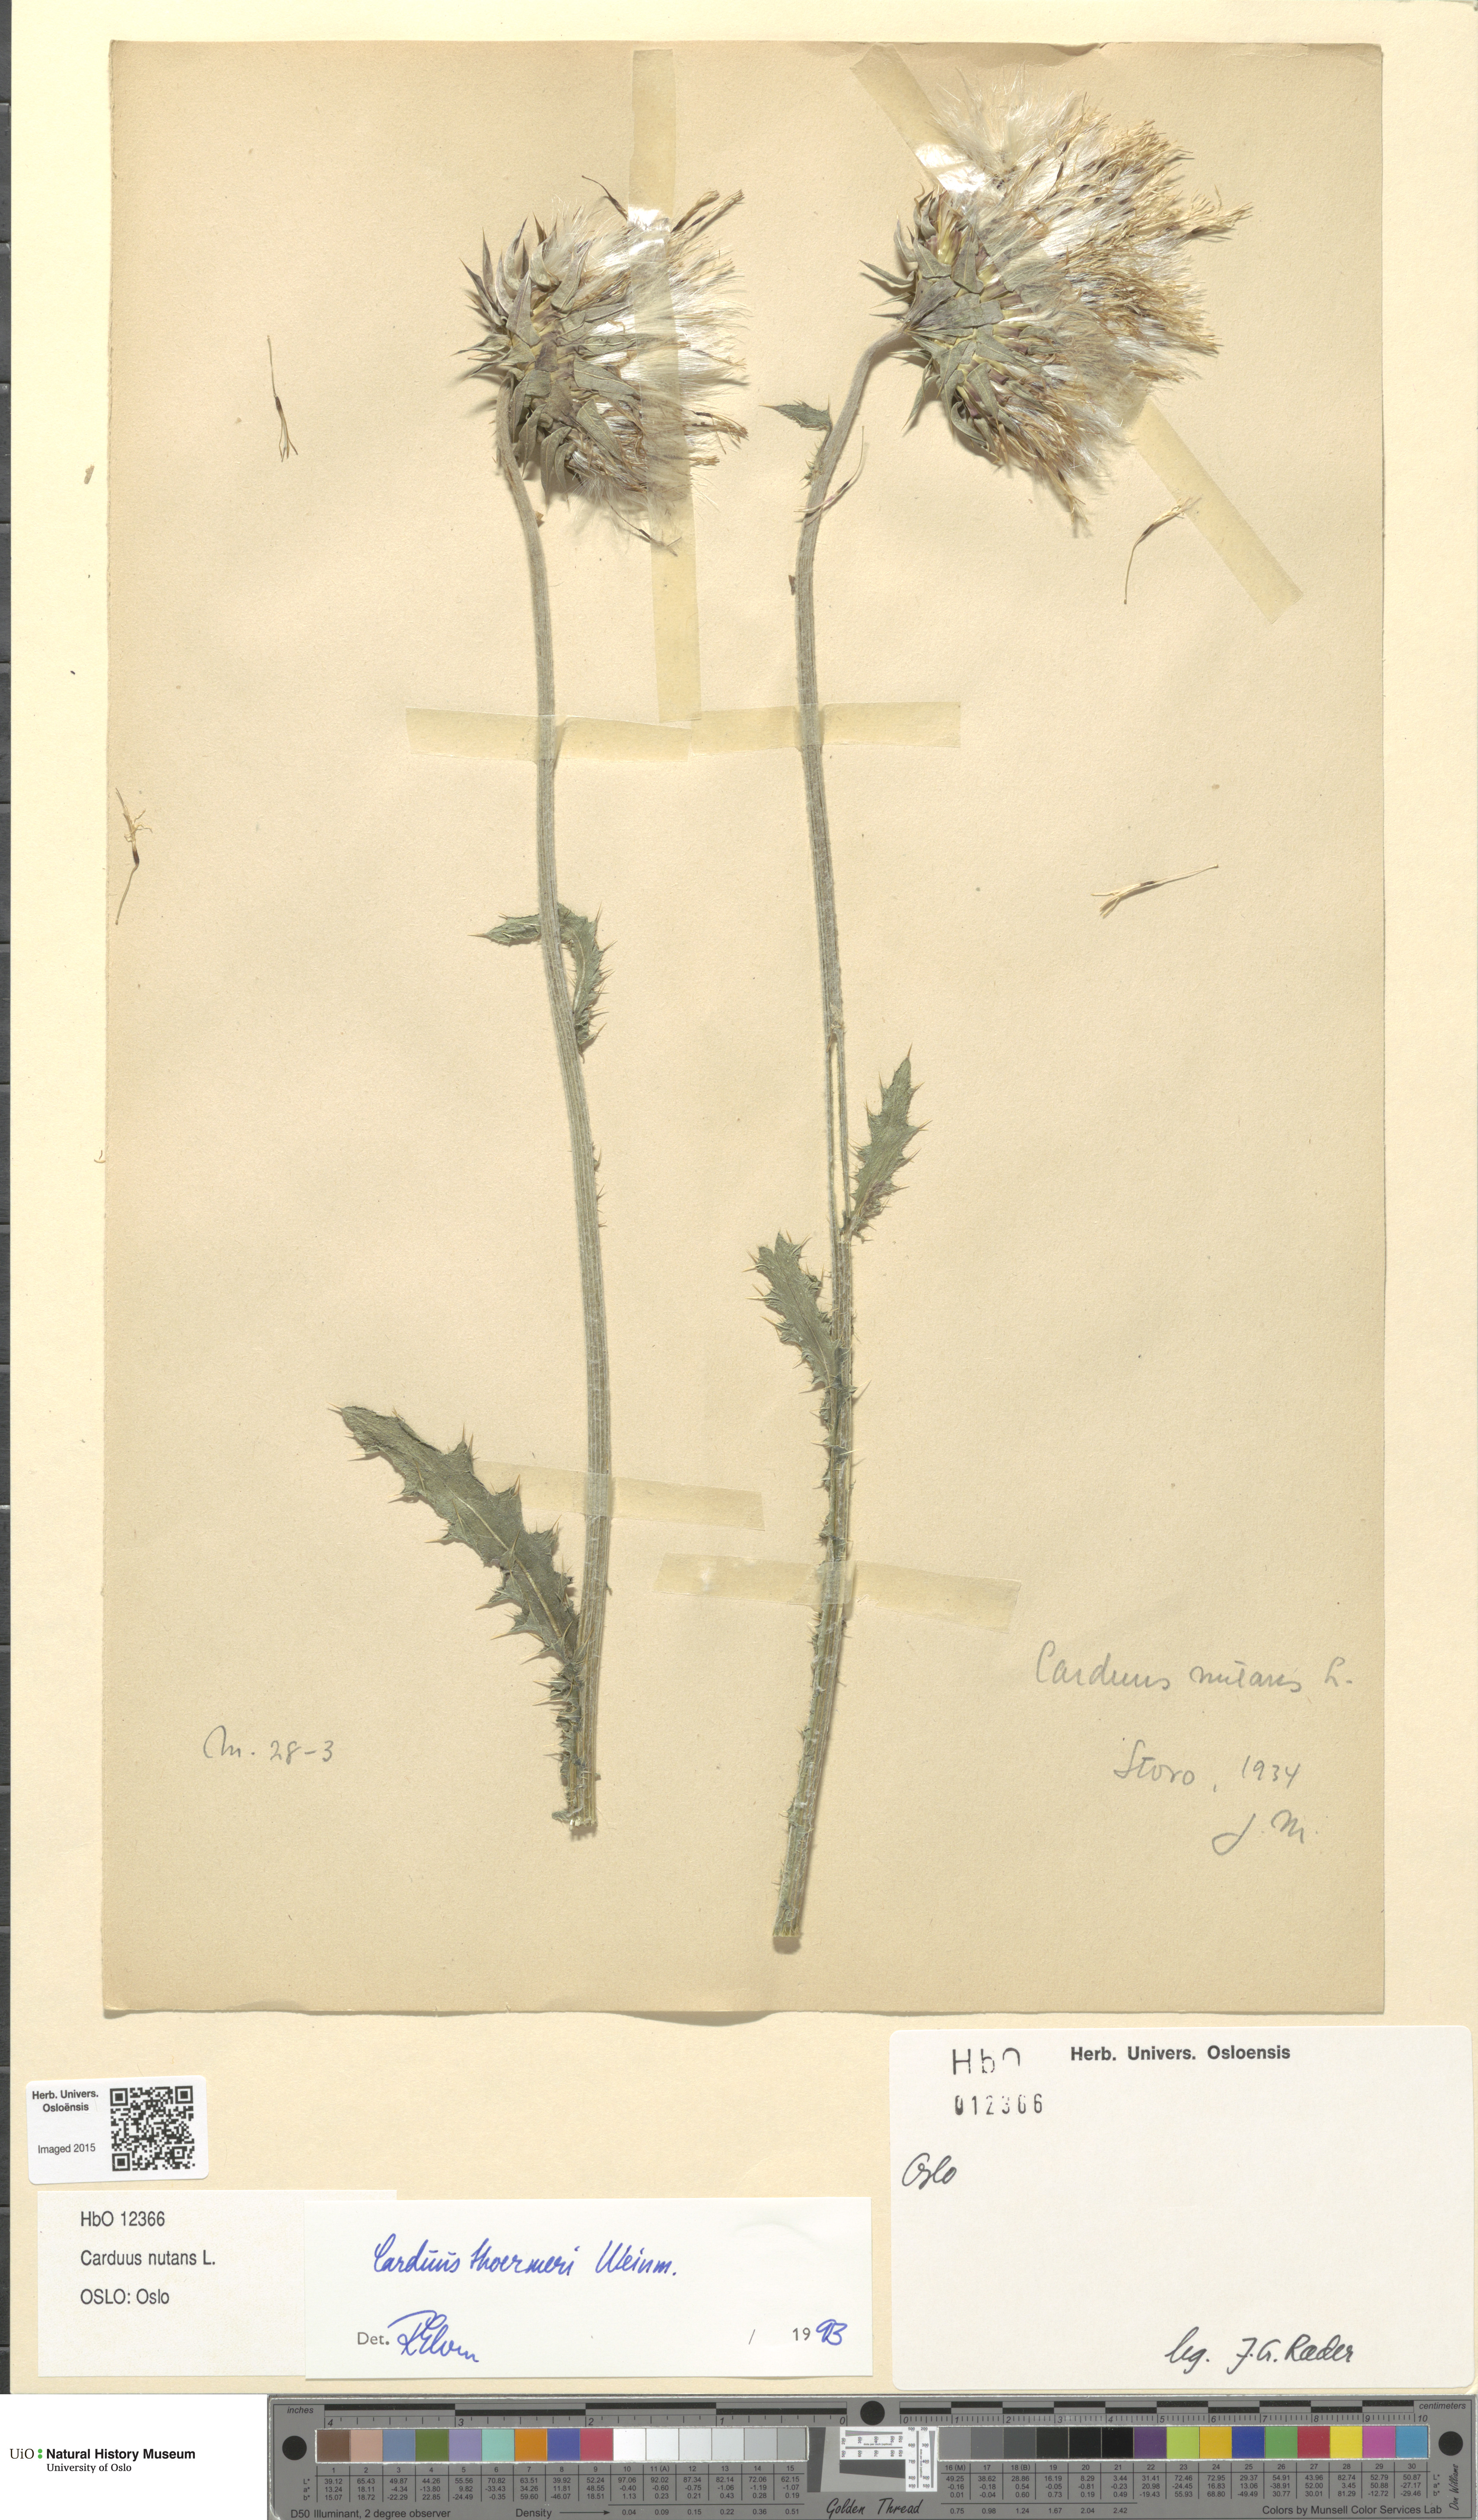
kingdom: Plantae
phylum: Tracheophyta
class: Magnoliopsida
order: Asterales
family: Asteraceae
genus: Carduus
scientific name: Carduus nutans
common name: Musk thistle
